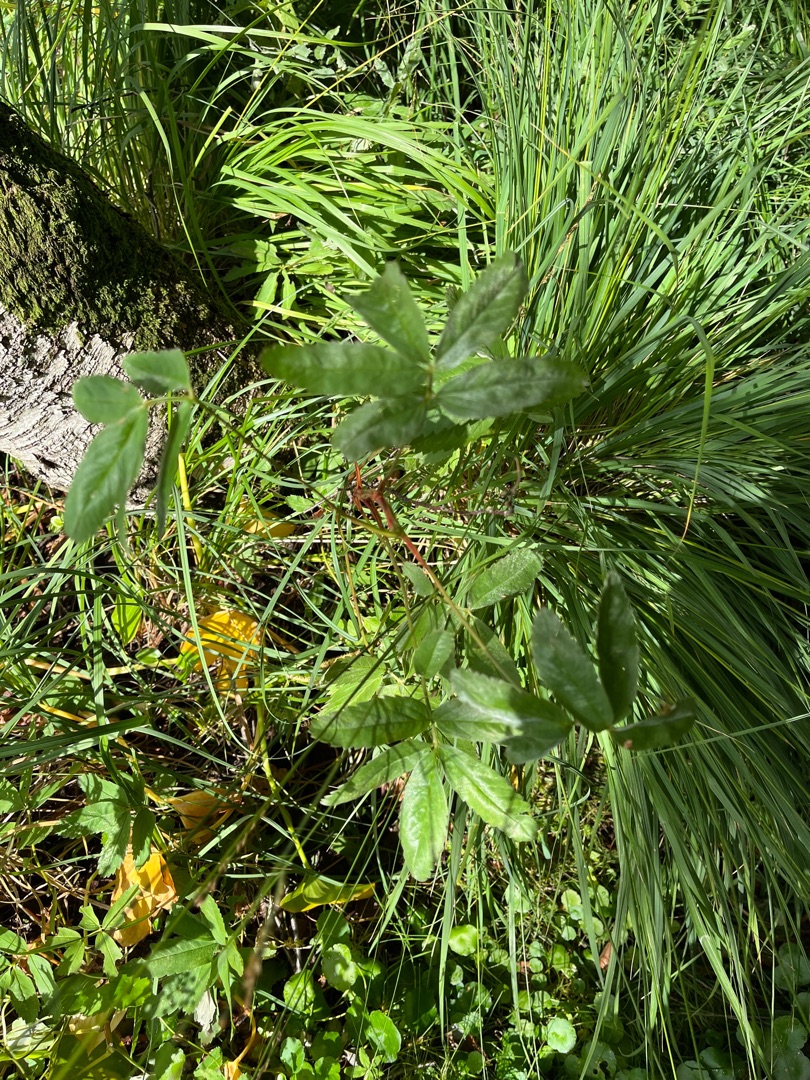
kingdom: Plantae
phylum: Tracheophyta
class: Magnoliopsida
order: Rosales
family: Rosaceae
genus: Comarum
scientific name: Comarum palustre
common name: Kragefod
